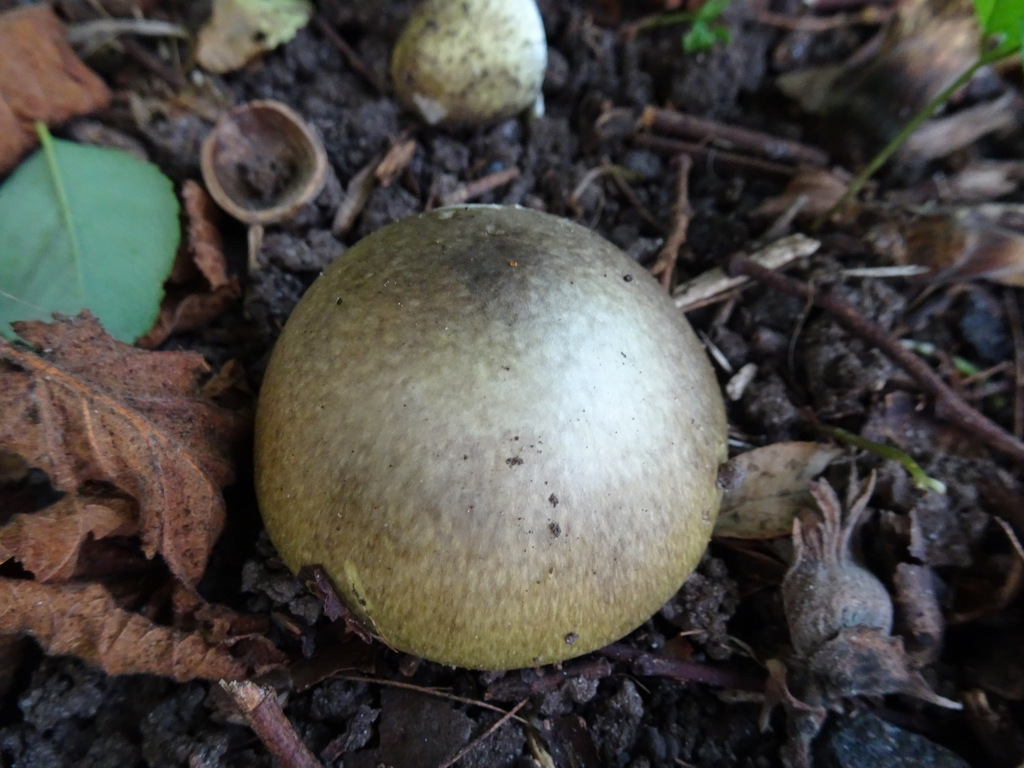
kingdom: Fungi
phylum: Basidiomycota
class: Agaricomycetes
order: Agaricales
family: Amanitaceae
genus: Amanita
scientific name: Amanita phalloides
